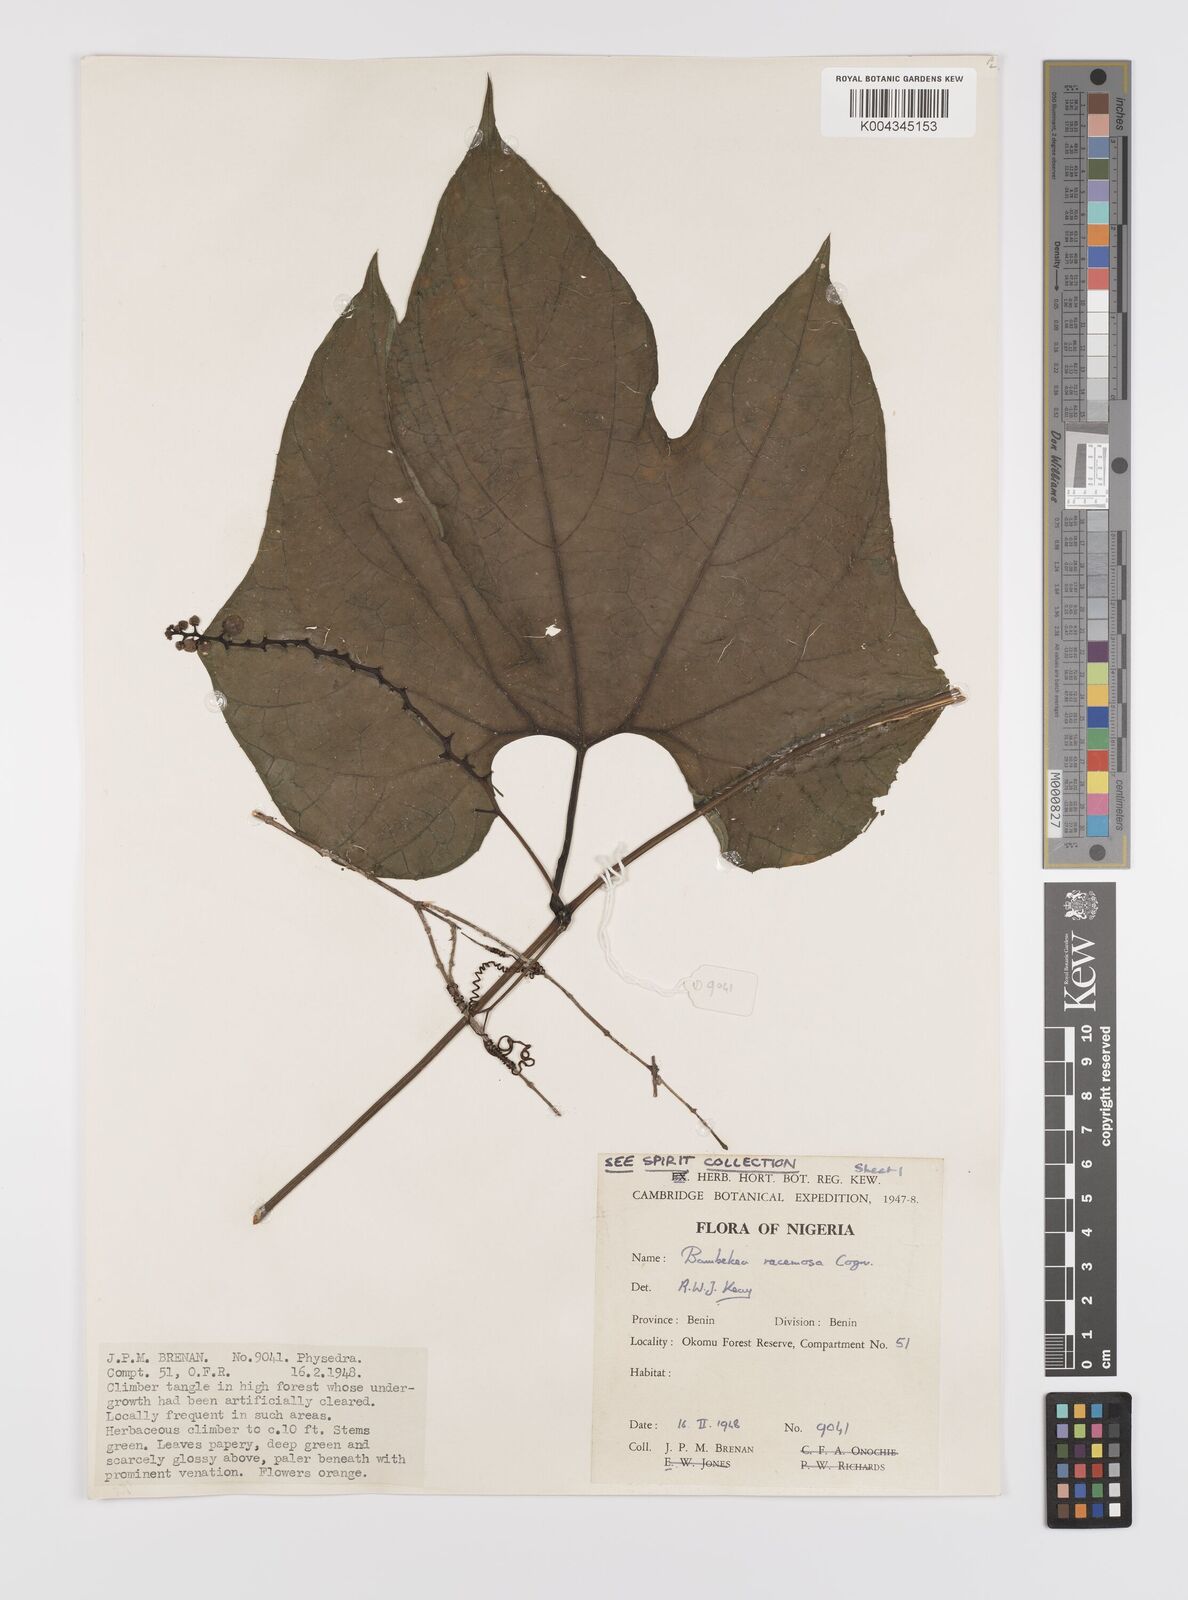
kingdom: Plantae
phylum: Tracheophyta
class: Magnoliopsida
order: Cucurbitales
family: Cucurbitaceae
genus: Bambekea
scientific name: Bambekea racemosa
